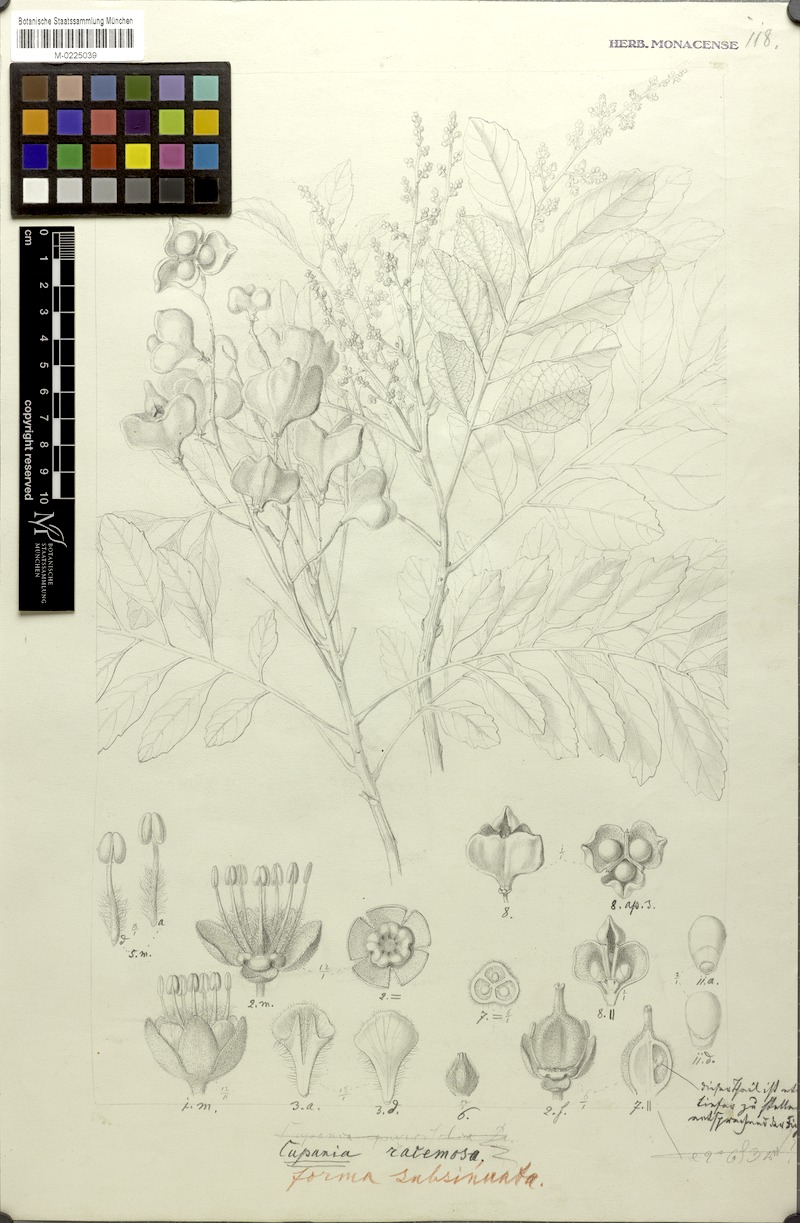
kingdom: Plantae
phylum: Tracheophyta
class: Magnoliopsida
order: Sapindales
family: Sapindaceae
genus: Cupania
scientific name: Cupania racemosa
